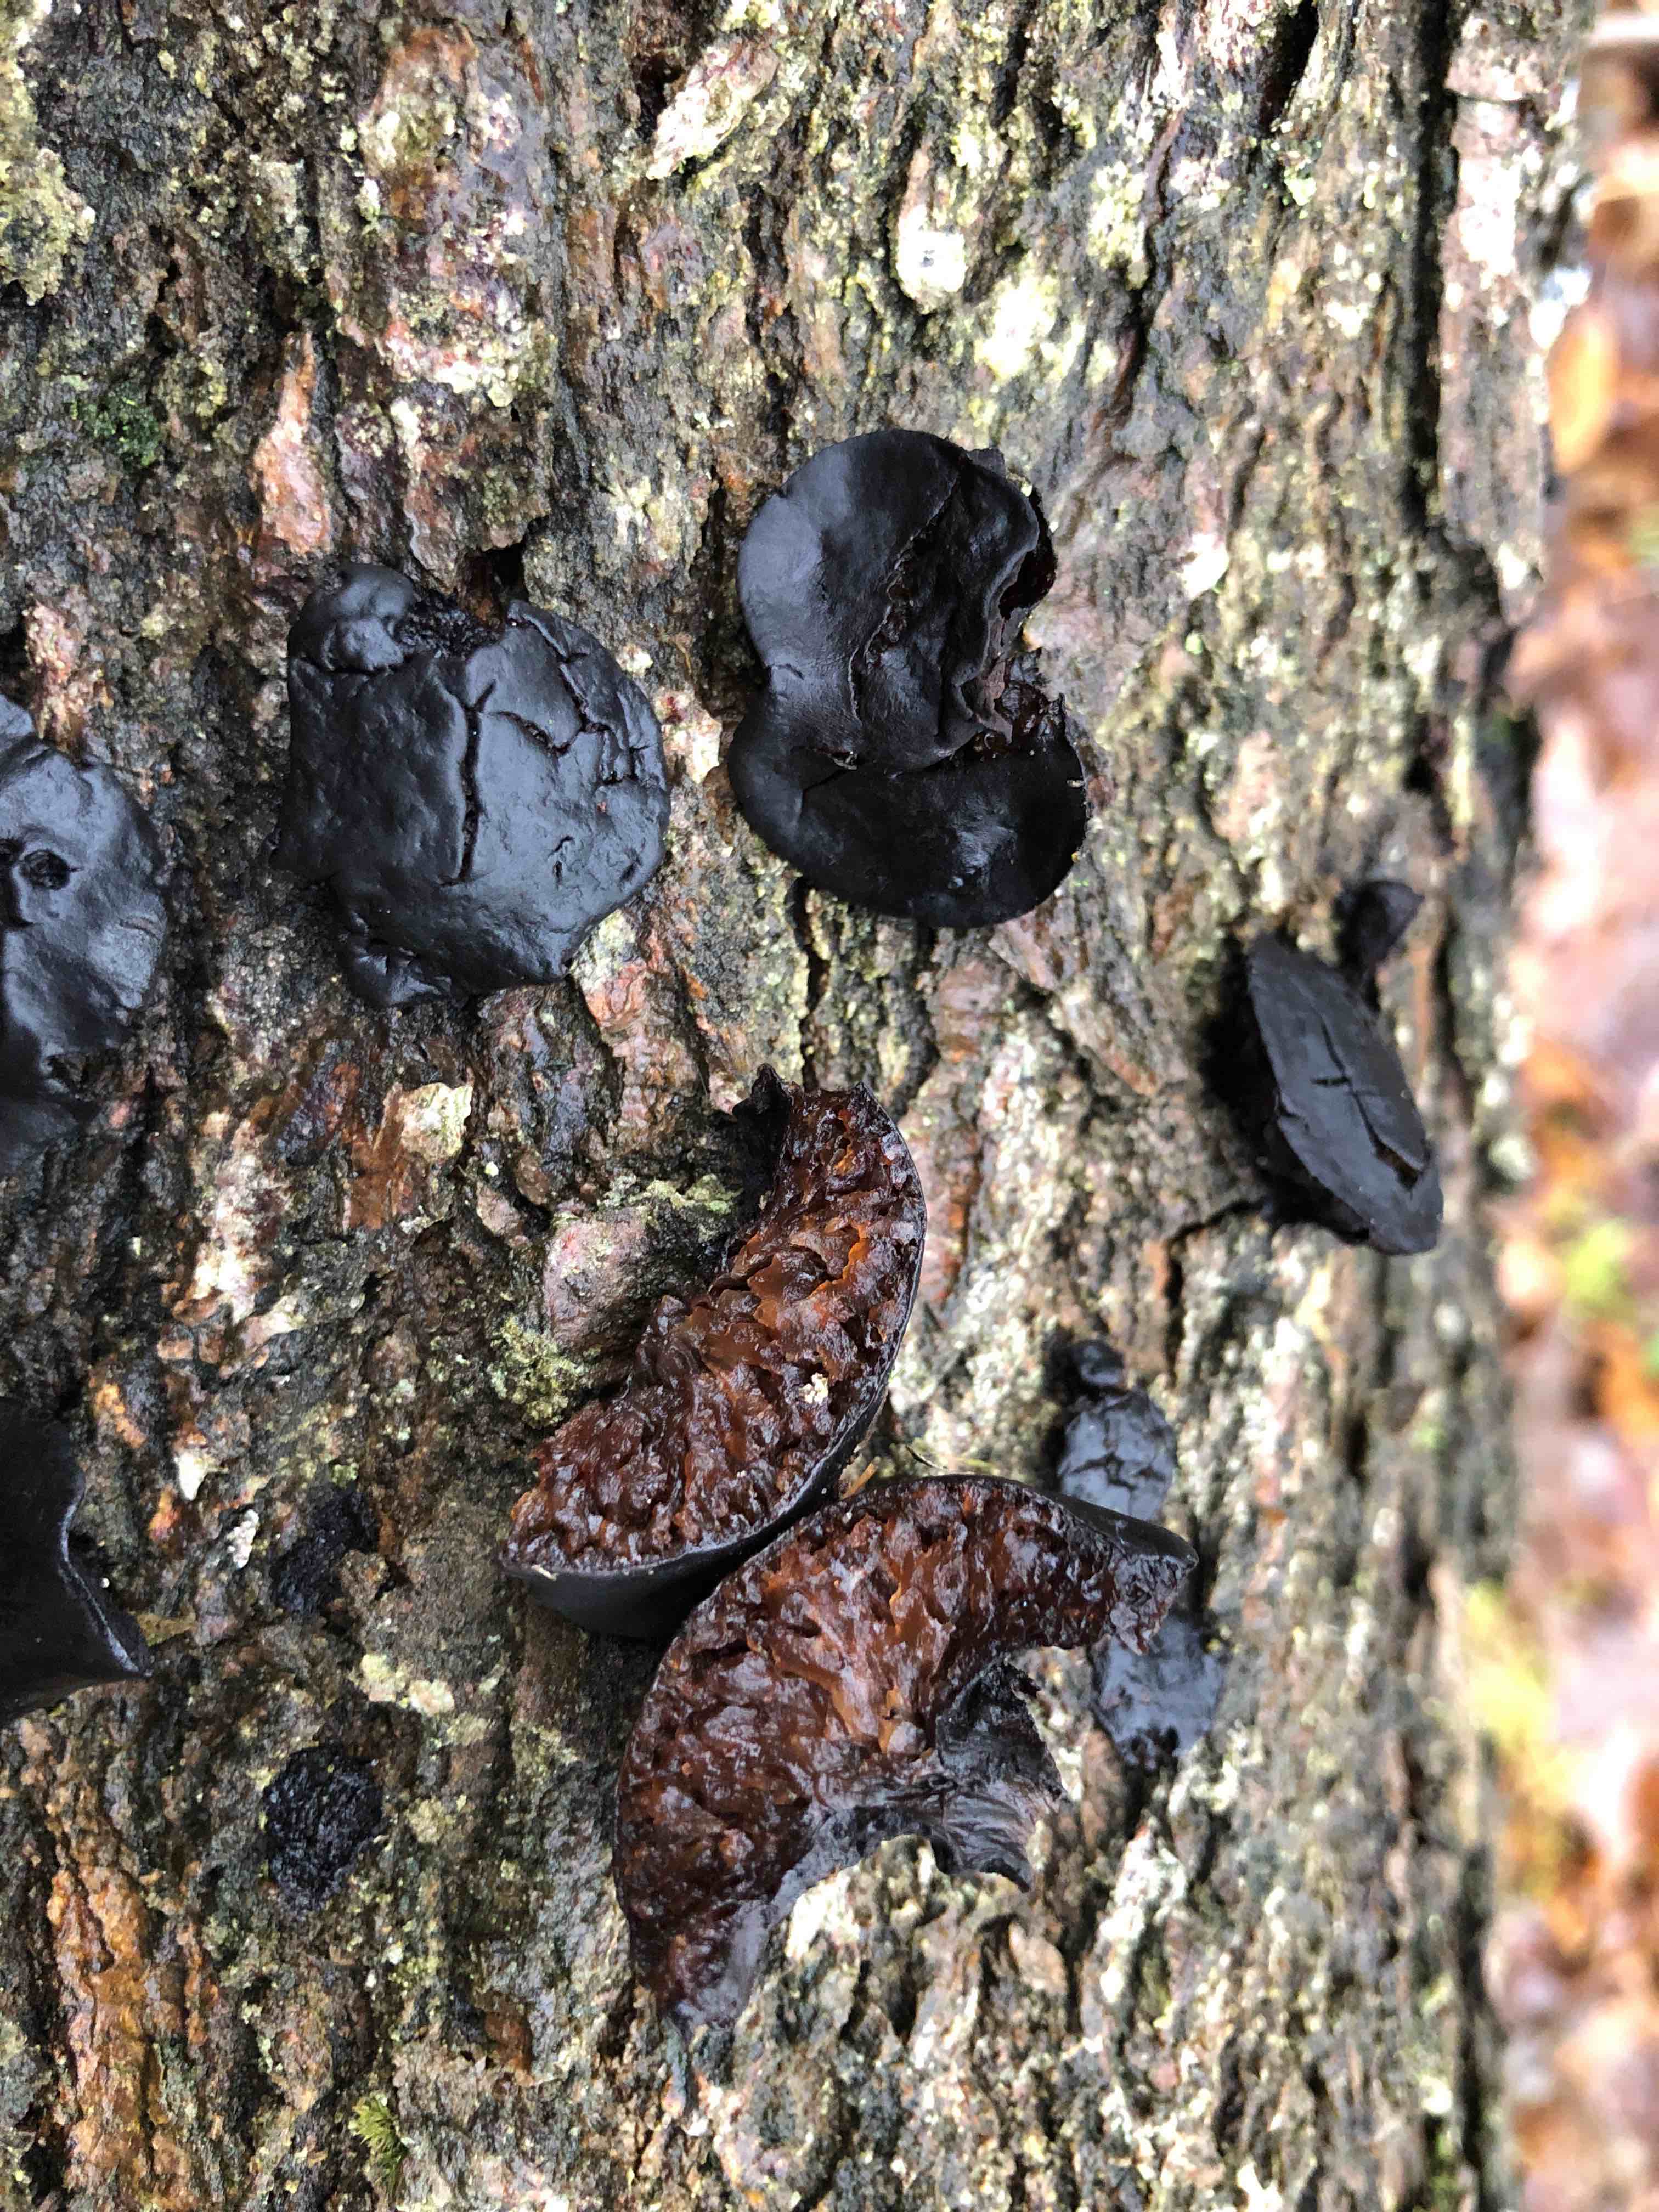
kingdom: Fungi
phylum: Ascomycota
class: Leotiomycetes
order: Phacidiales
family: Phacidiaceae
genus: Bulgaria
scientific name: Bulgaria inquinans
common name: afsmittende topsvamp
